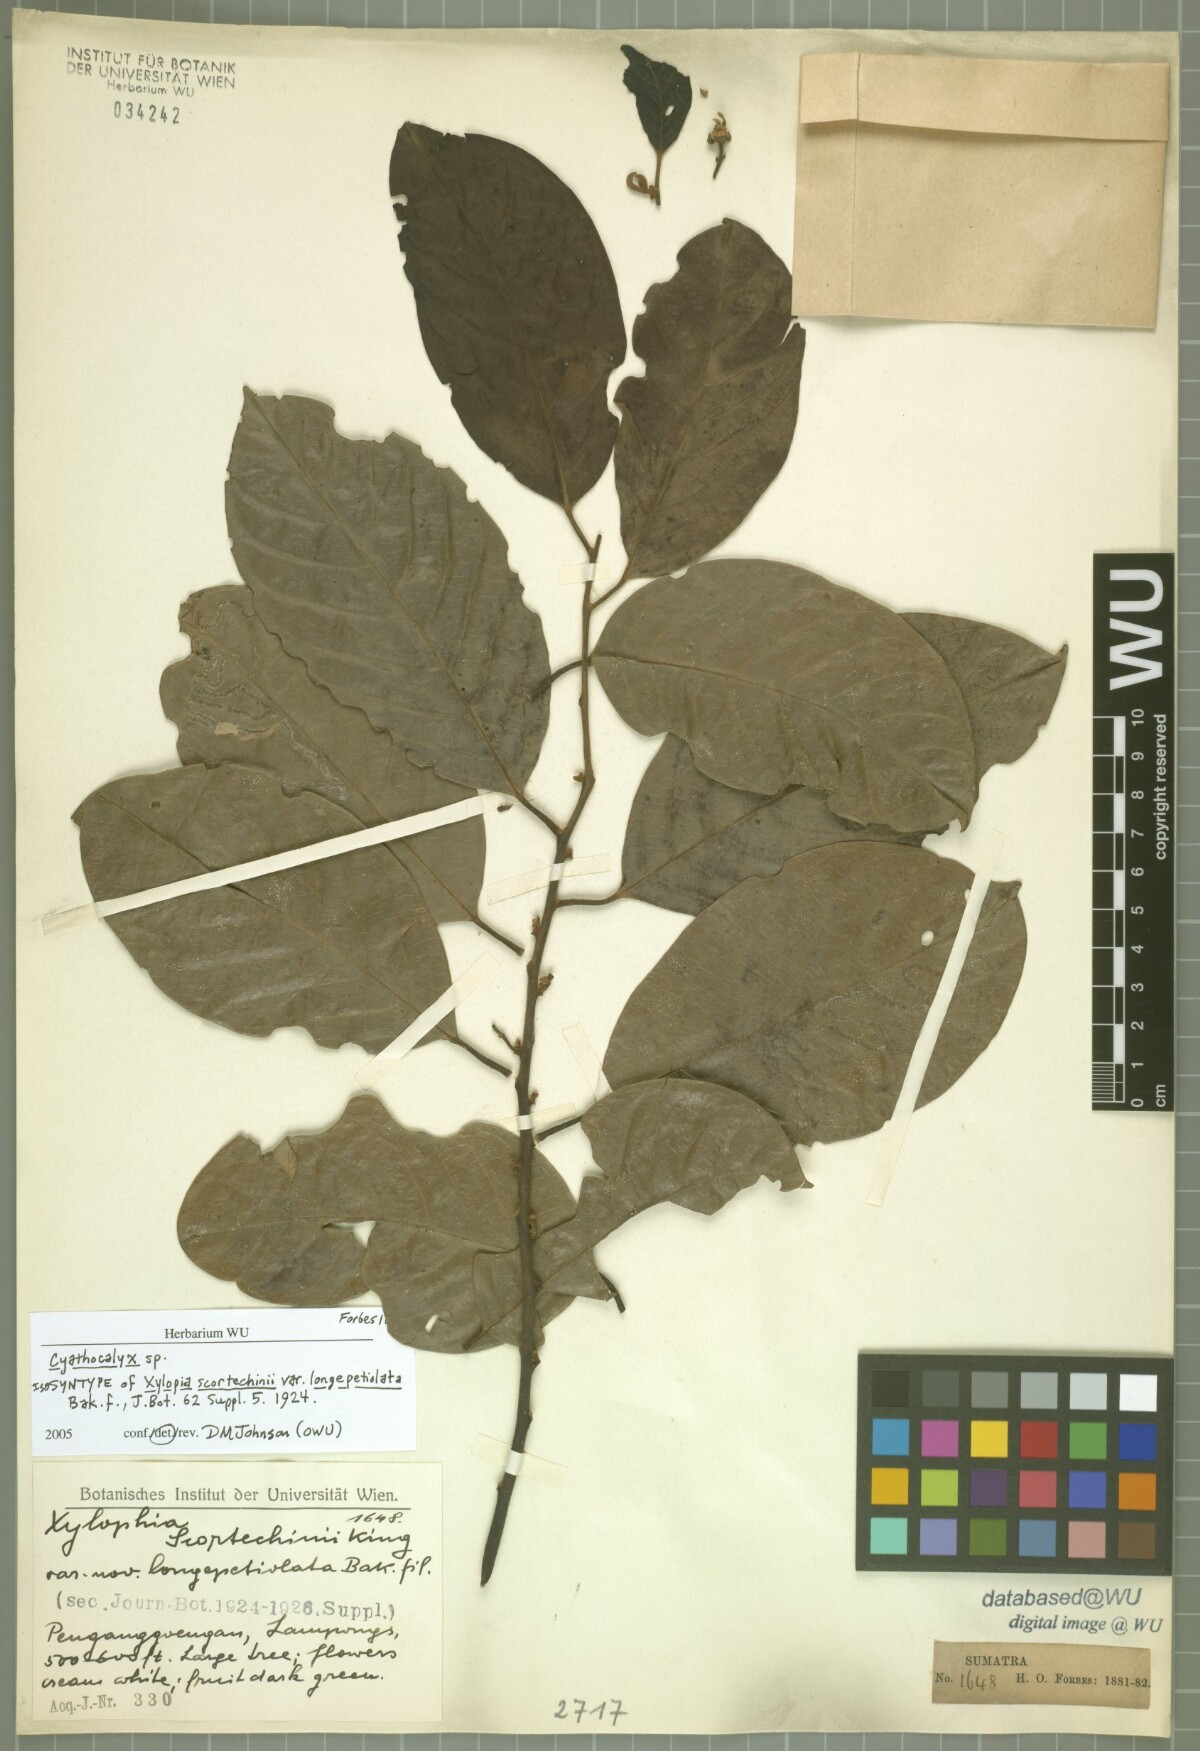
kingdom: Plantae
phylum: Tracheophyta
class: Magnoliopsida
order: Magnoliales
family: Annonaceae
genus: Drepananthus
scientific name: Drepananthus hexagynus
